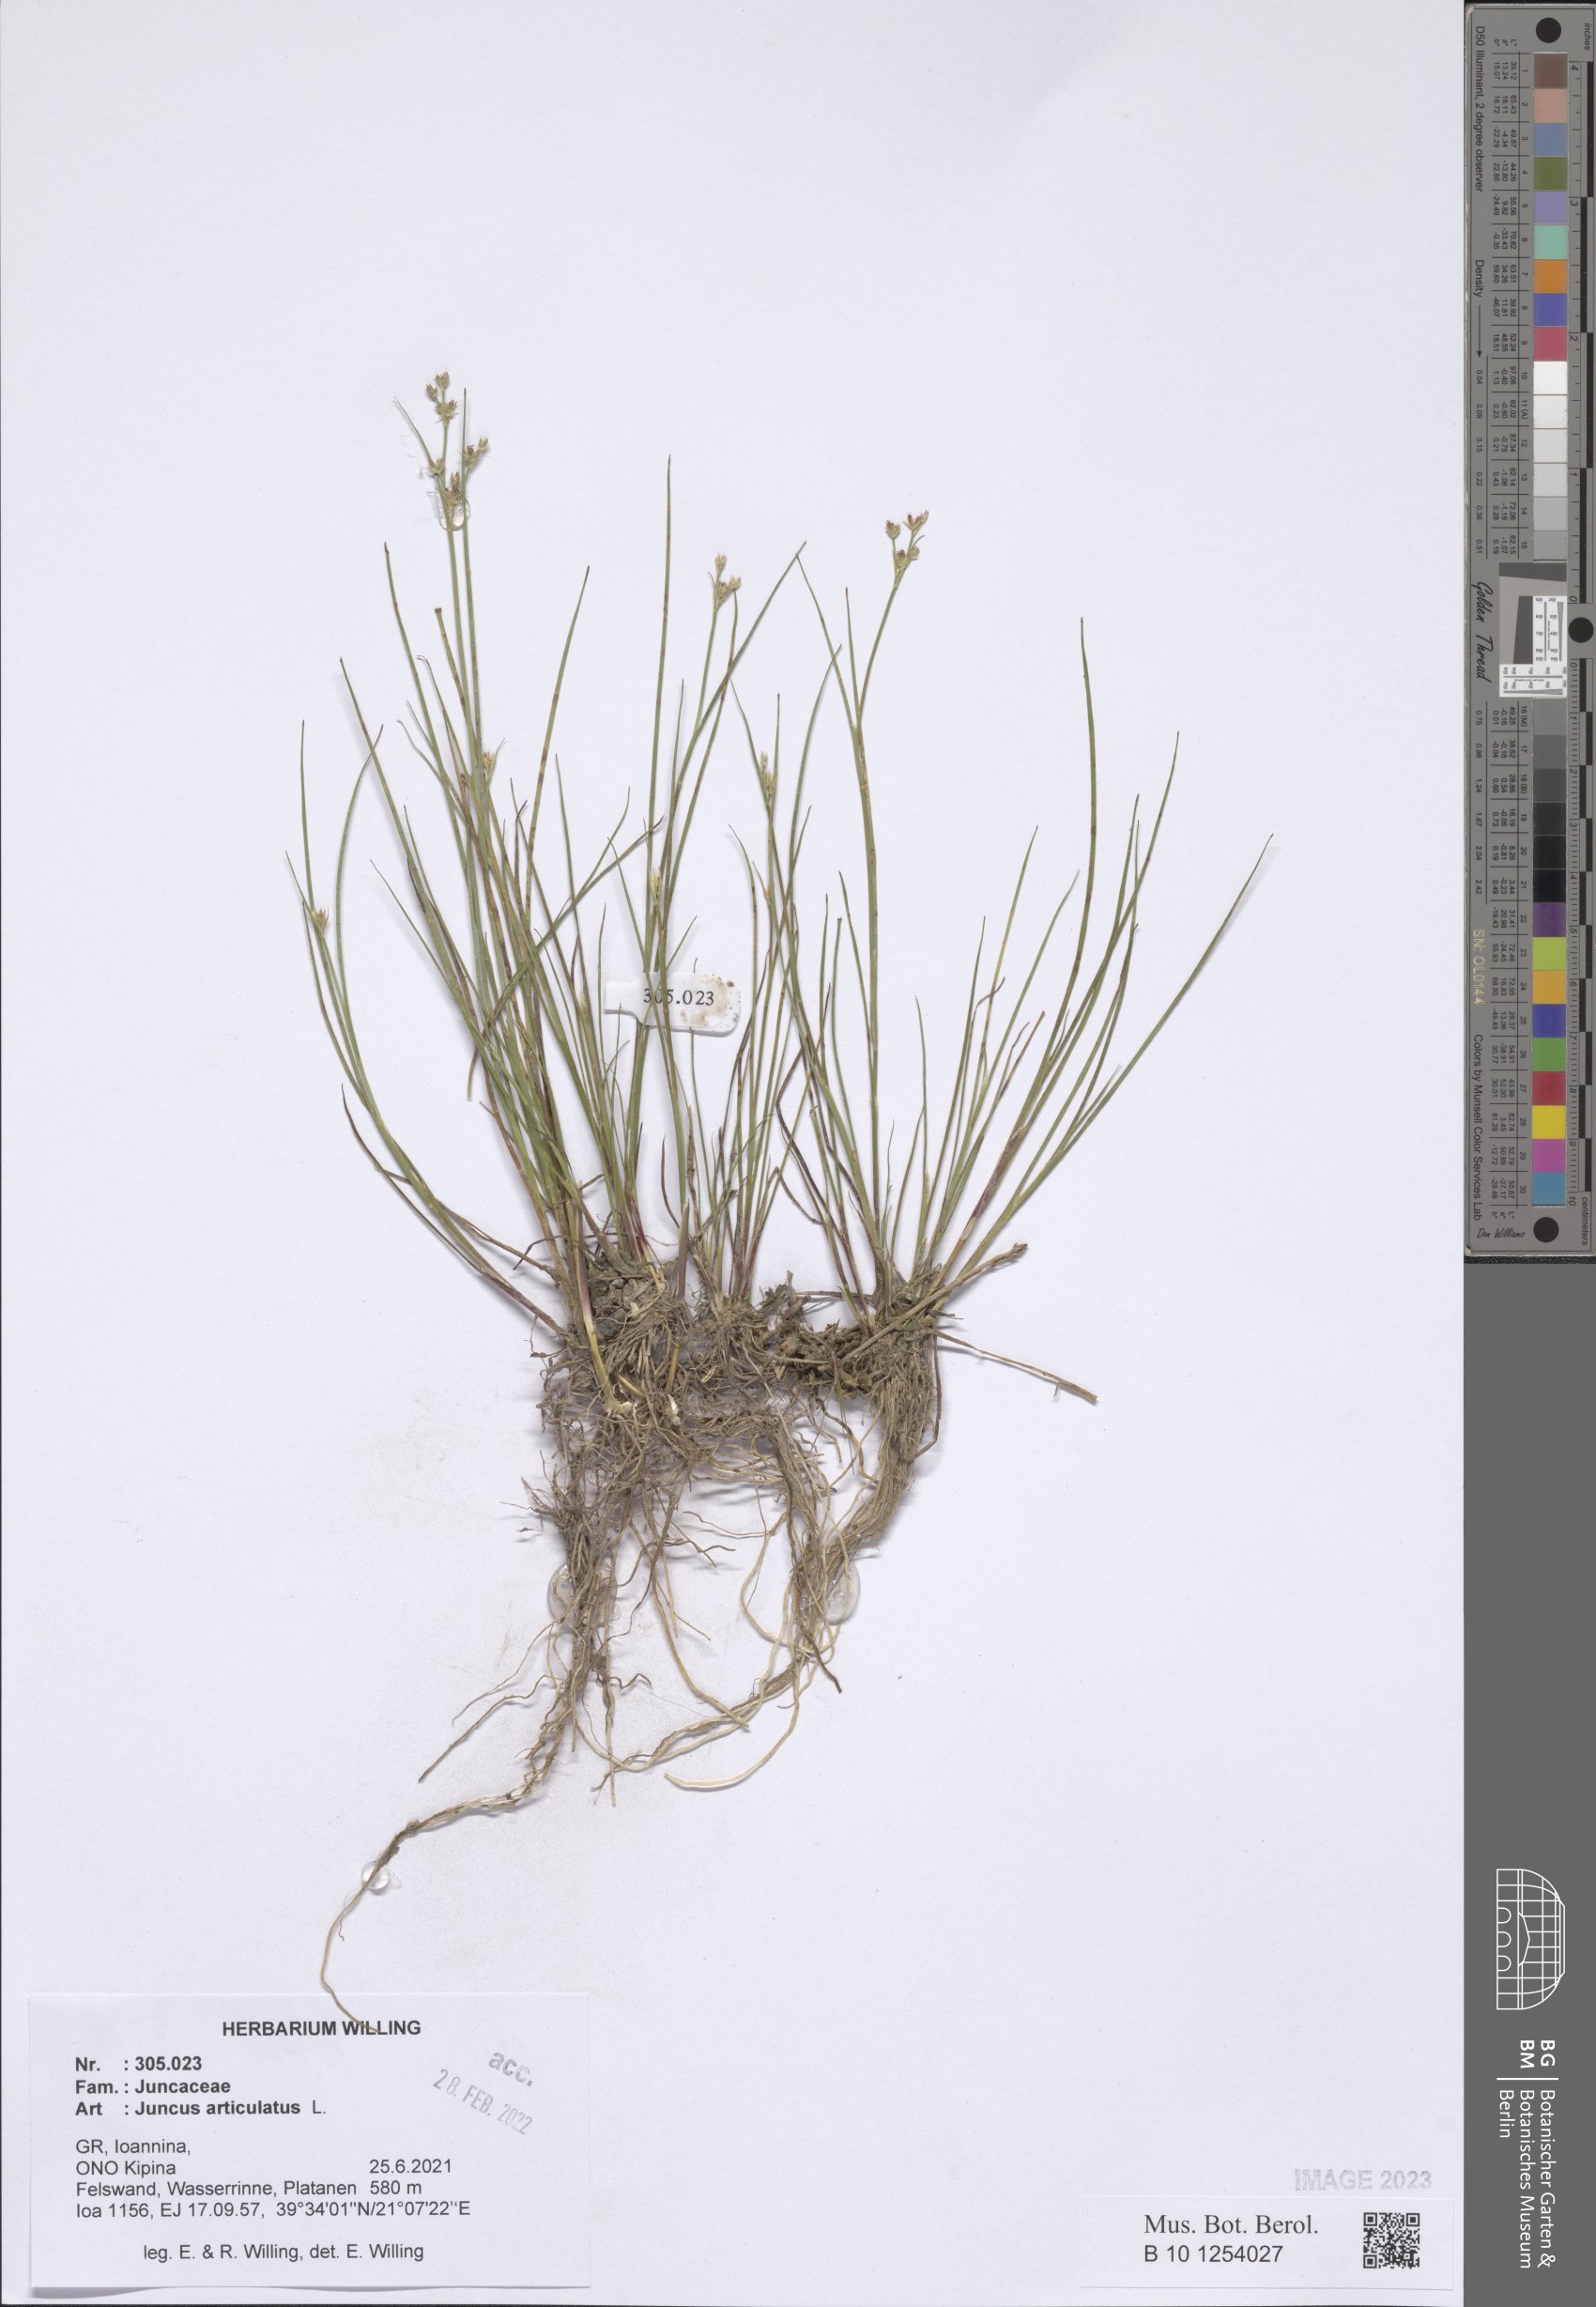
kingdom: Plantae
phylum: Tracheophyta
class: Liliopsida
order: Poales
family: Juncaceae
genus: Juncus
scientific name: Juncus articulatus
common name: Jointed rush
